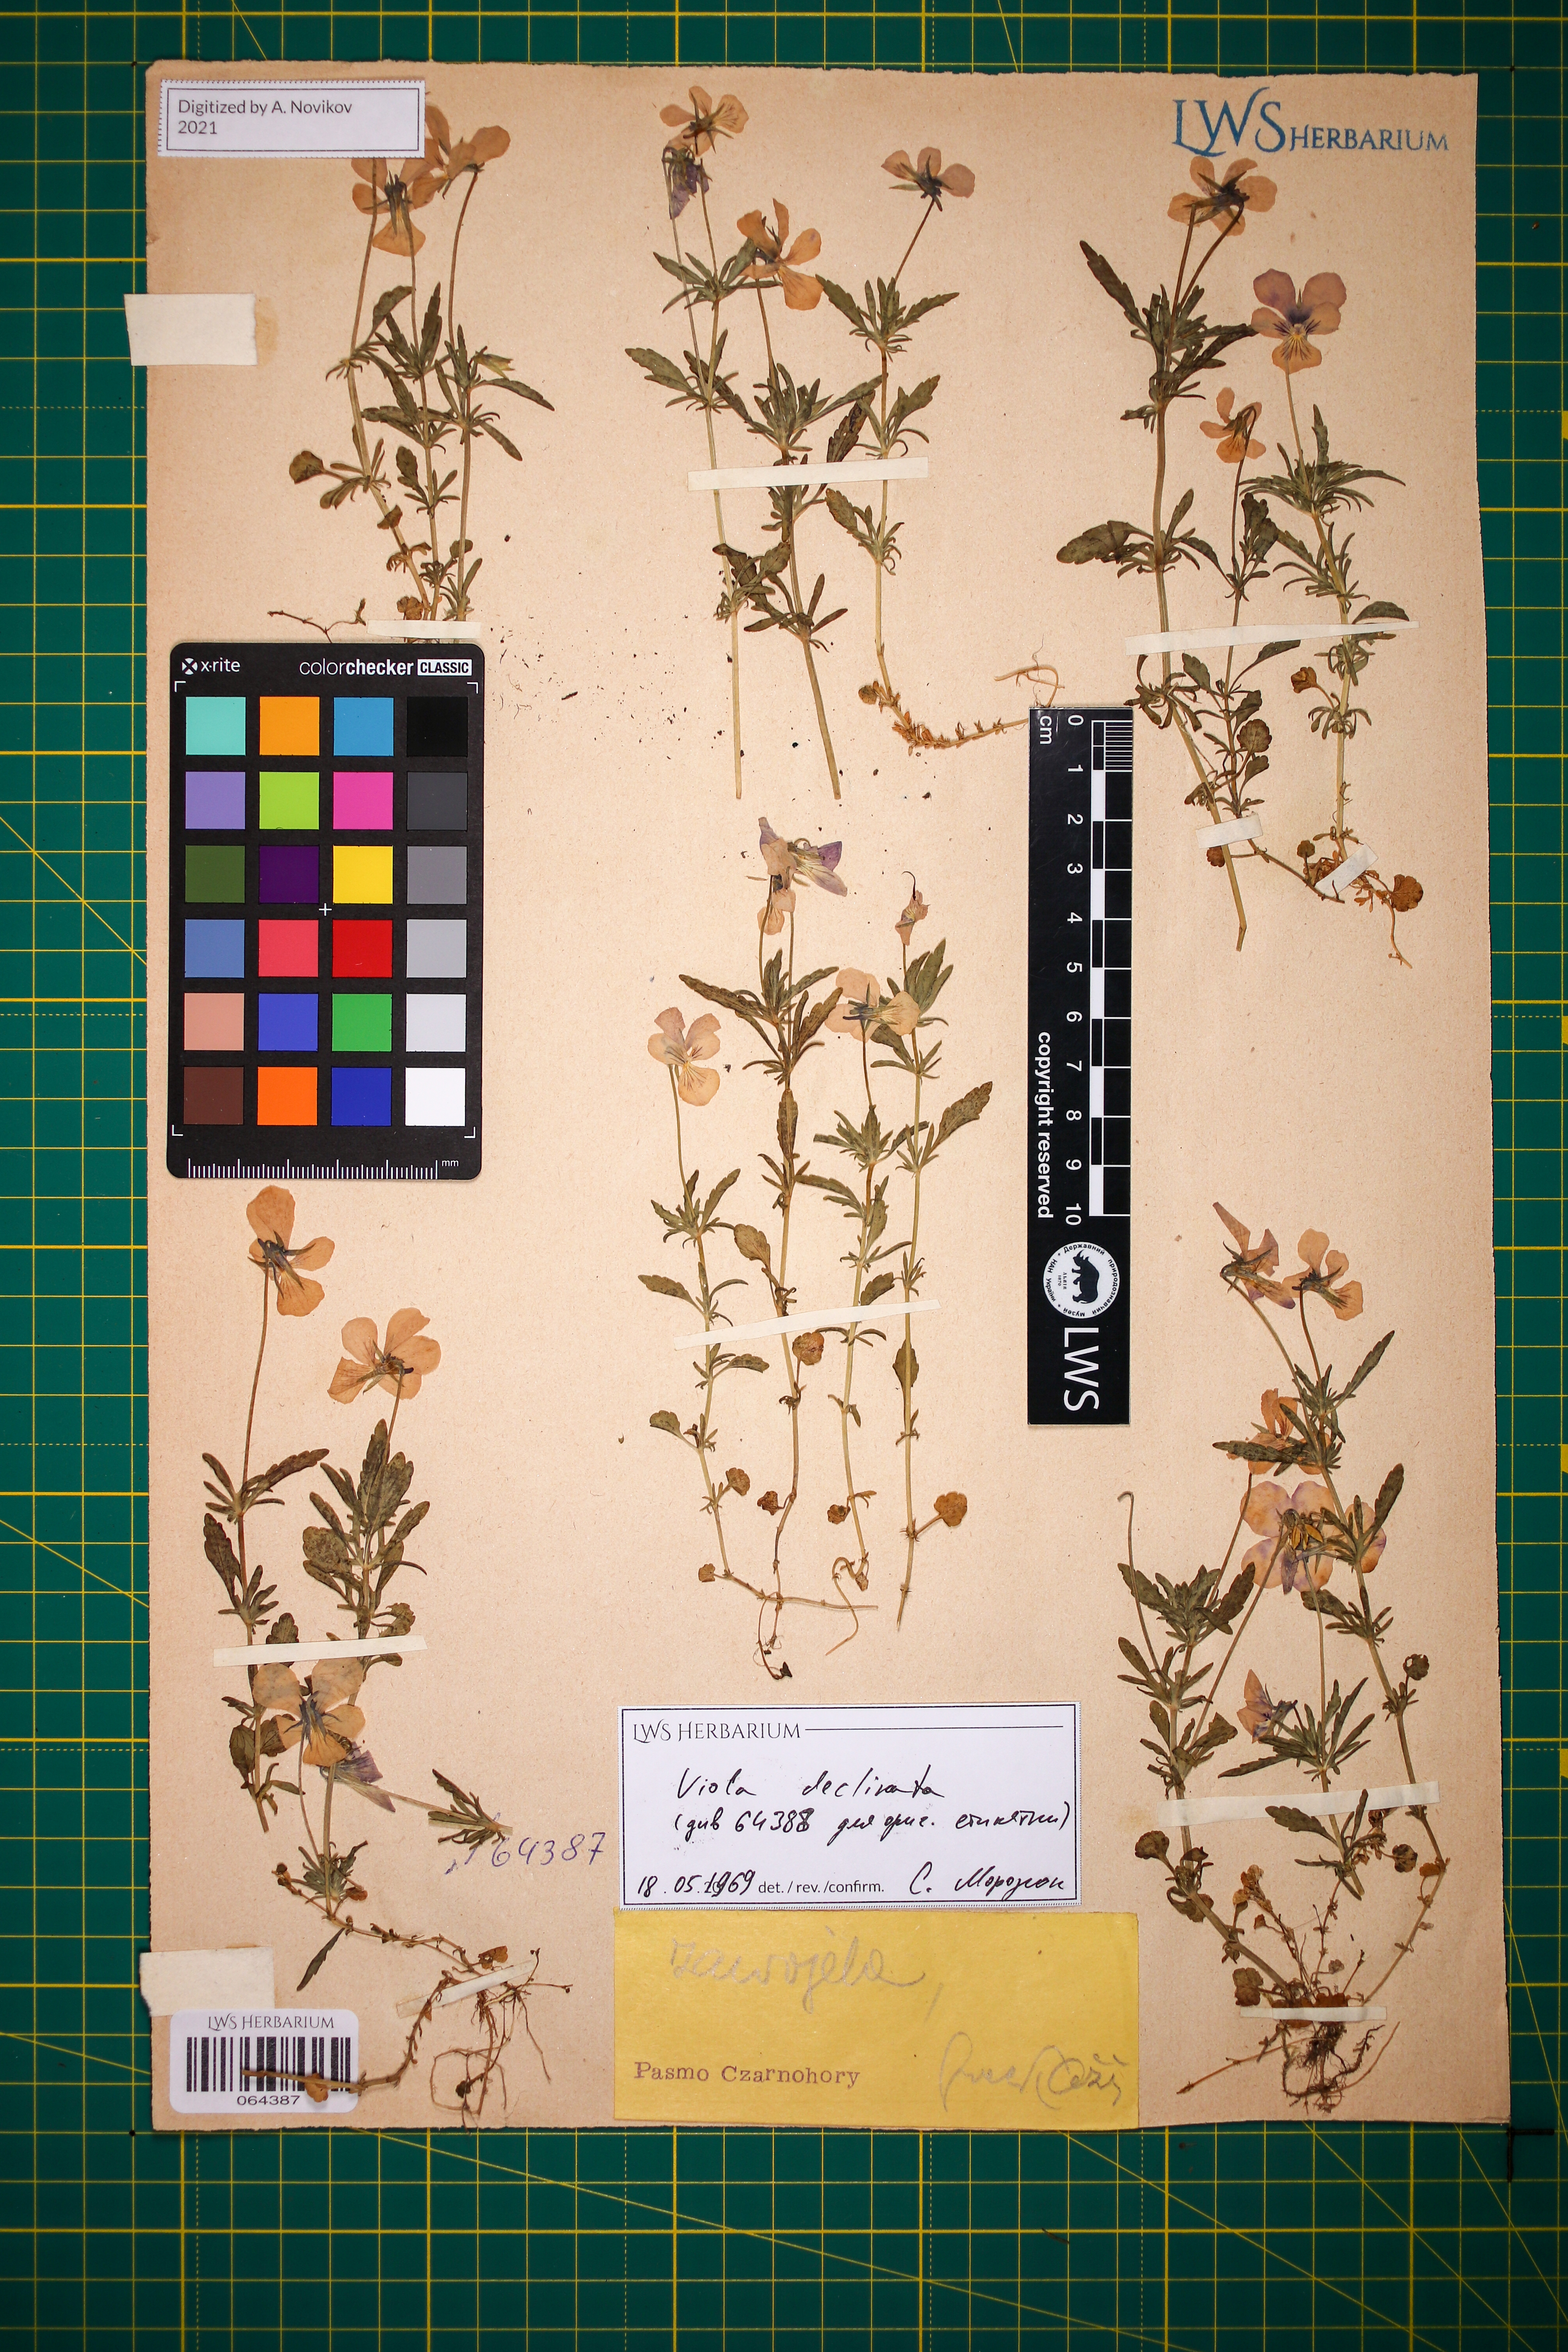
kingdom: Plantae
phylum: Tracheophyta
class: Magnoliopsida
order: Malpighiales
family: Violaceae
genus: Viola
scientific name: Viola declinata
